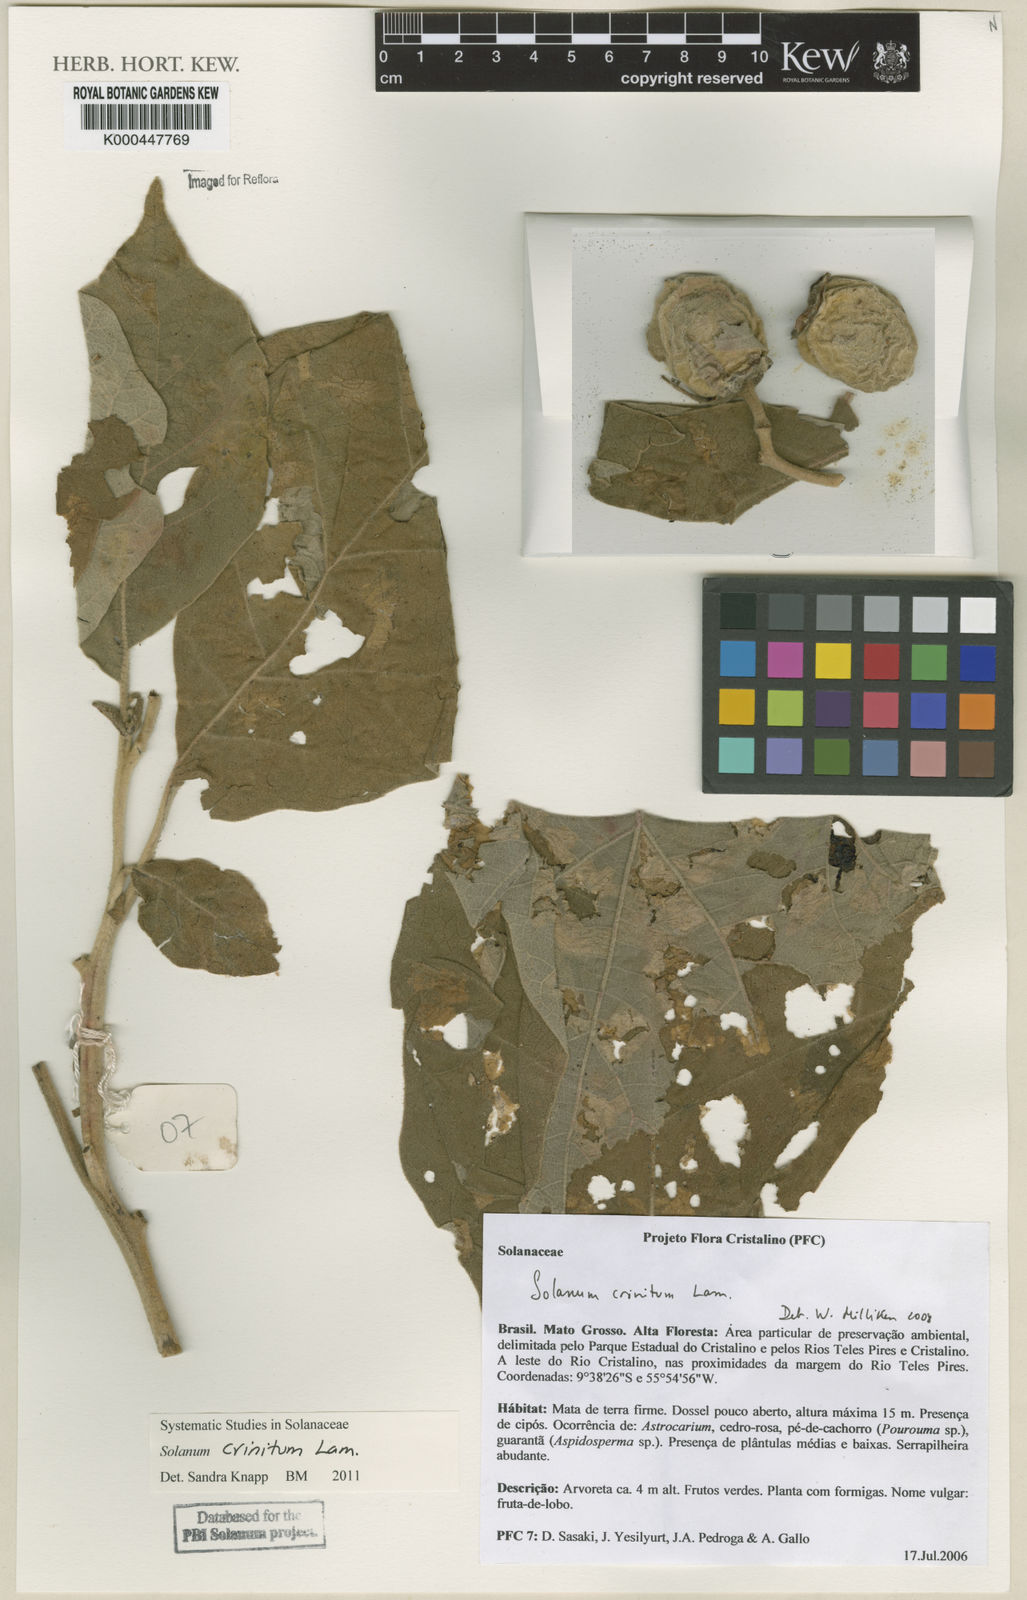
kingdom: Plantae
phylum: Tracheophyta
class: Magnoliopsida
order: Solanales
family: Solanaceae
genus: Solanum
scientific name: Solanum crinitum
